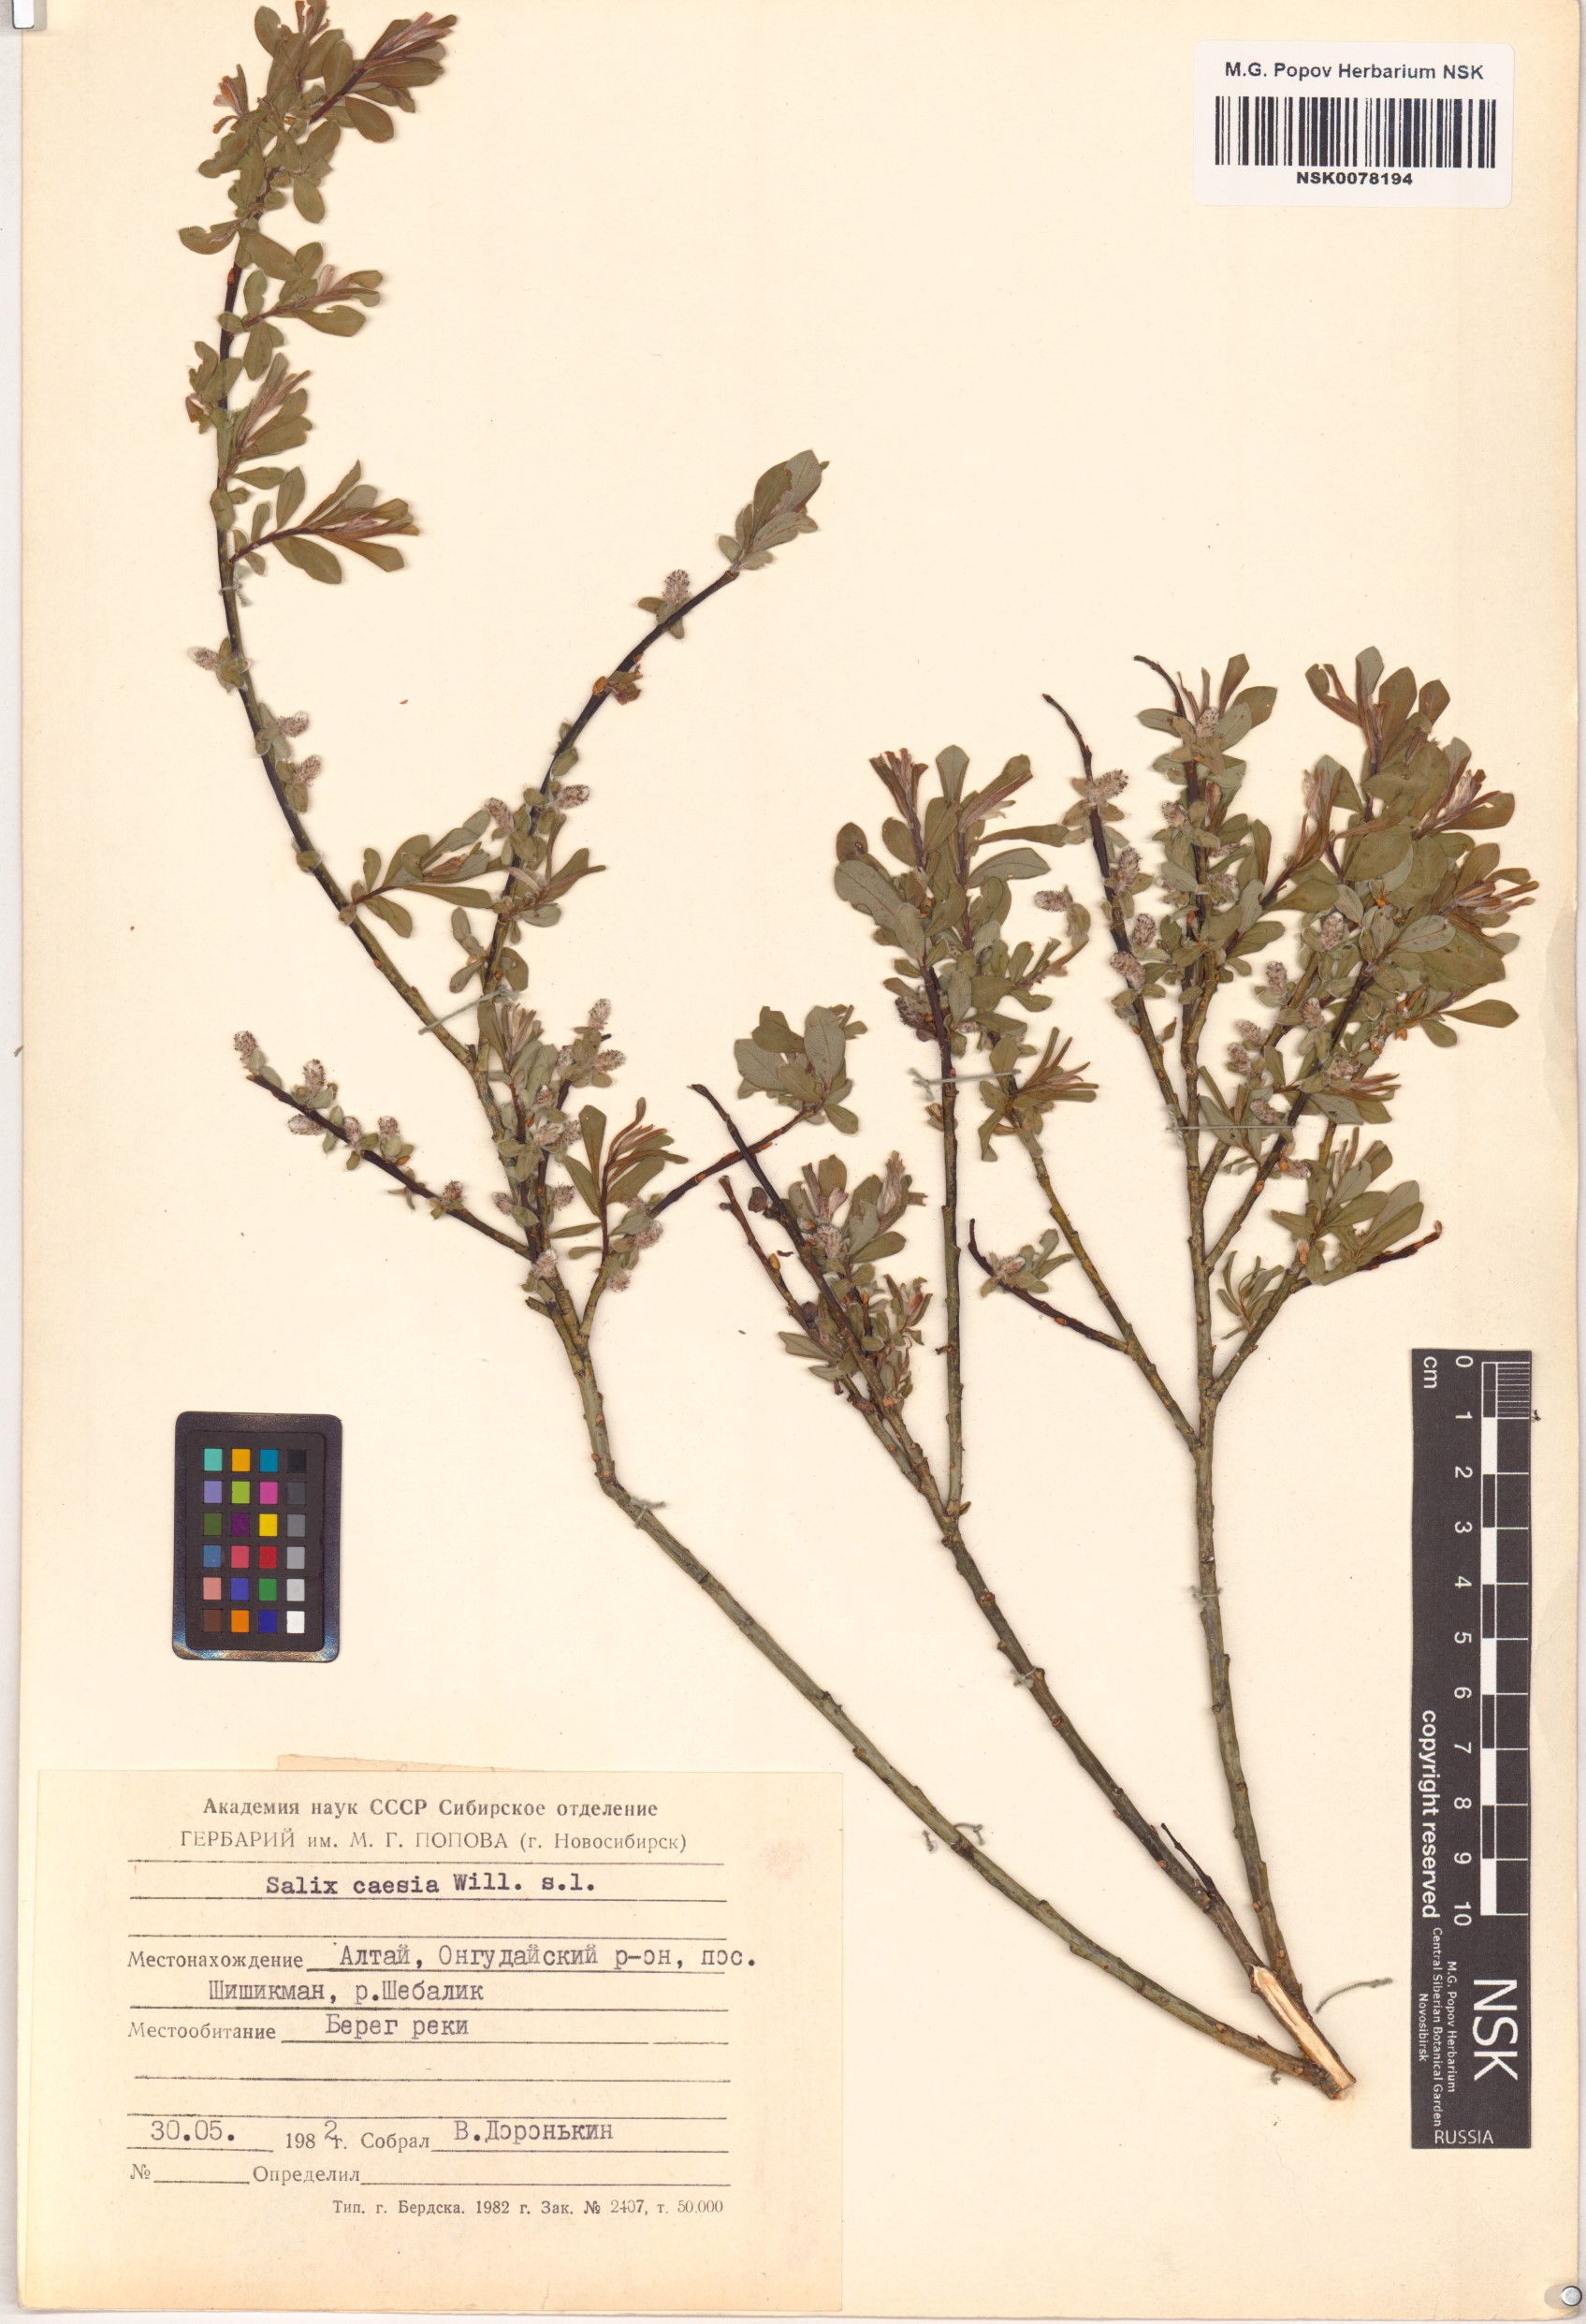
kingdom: Plantae
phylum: Tracheophyta
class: Magnoliopsida
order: Malpighiales
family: Salicaceae
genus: Salix
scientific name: Salix caesia
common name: Blue willow
